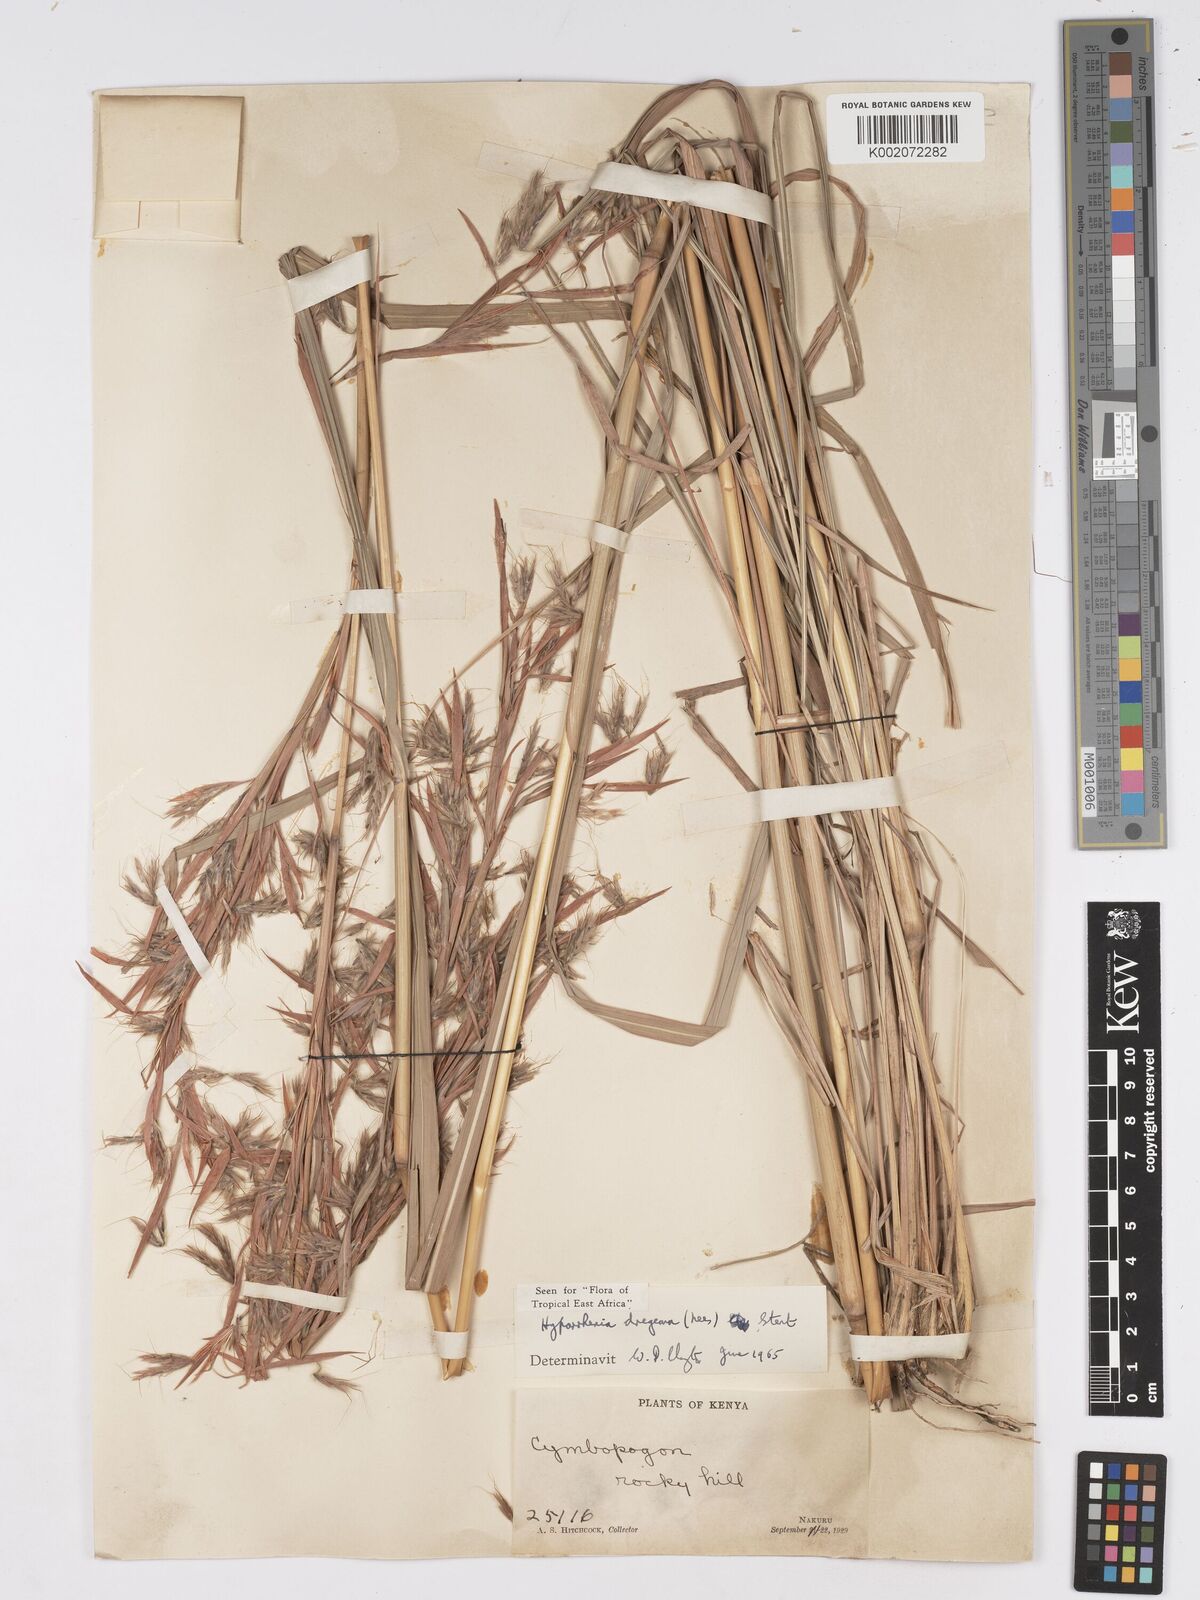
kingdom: Plantae
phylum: Tracheophyta
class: Liliopsida
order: Poales
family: Poaceae
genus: Hyparrhenia
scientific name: Hyparrhenia dregeana
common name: Silky thatching grass
